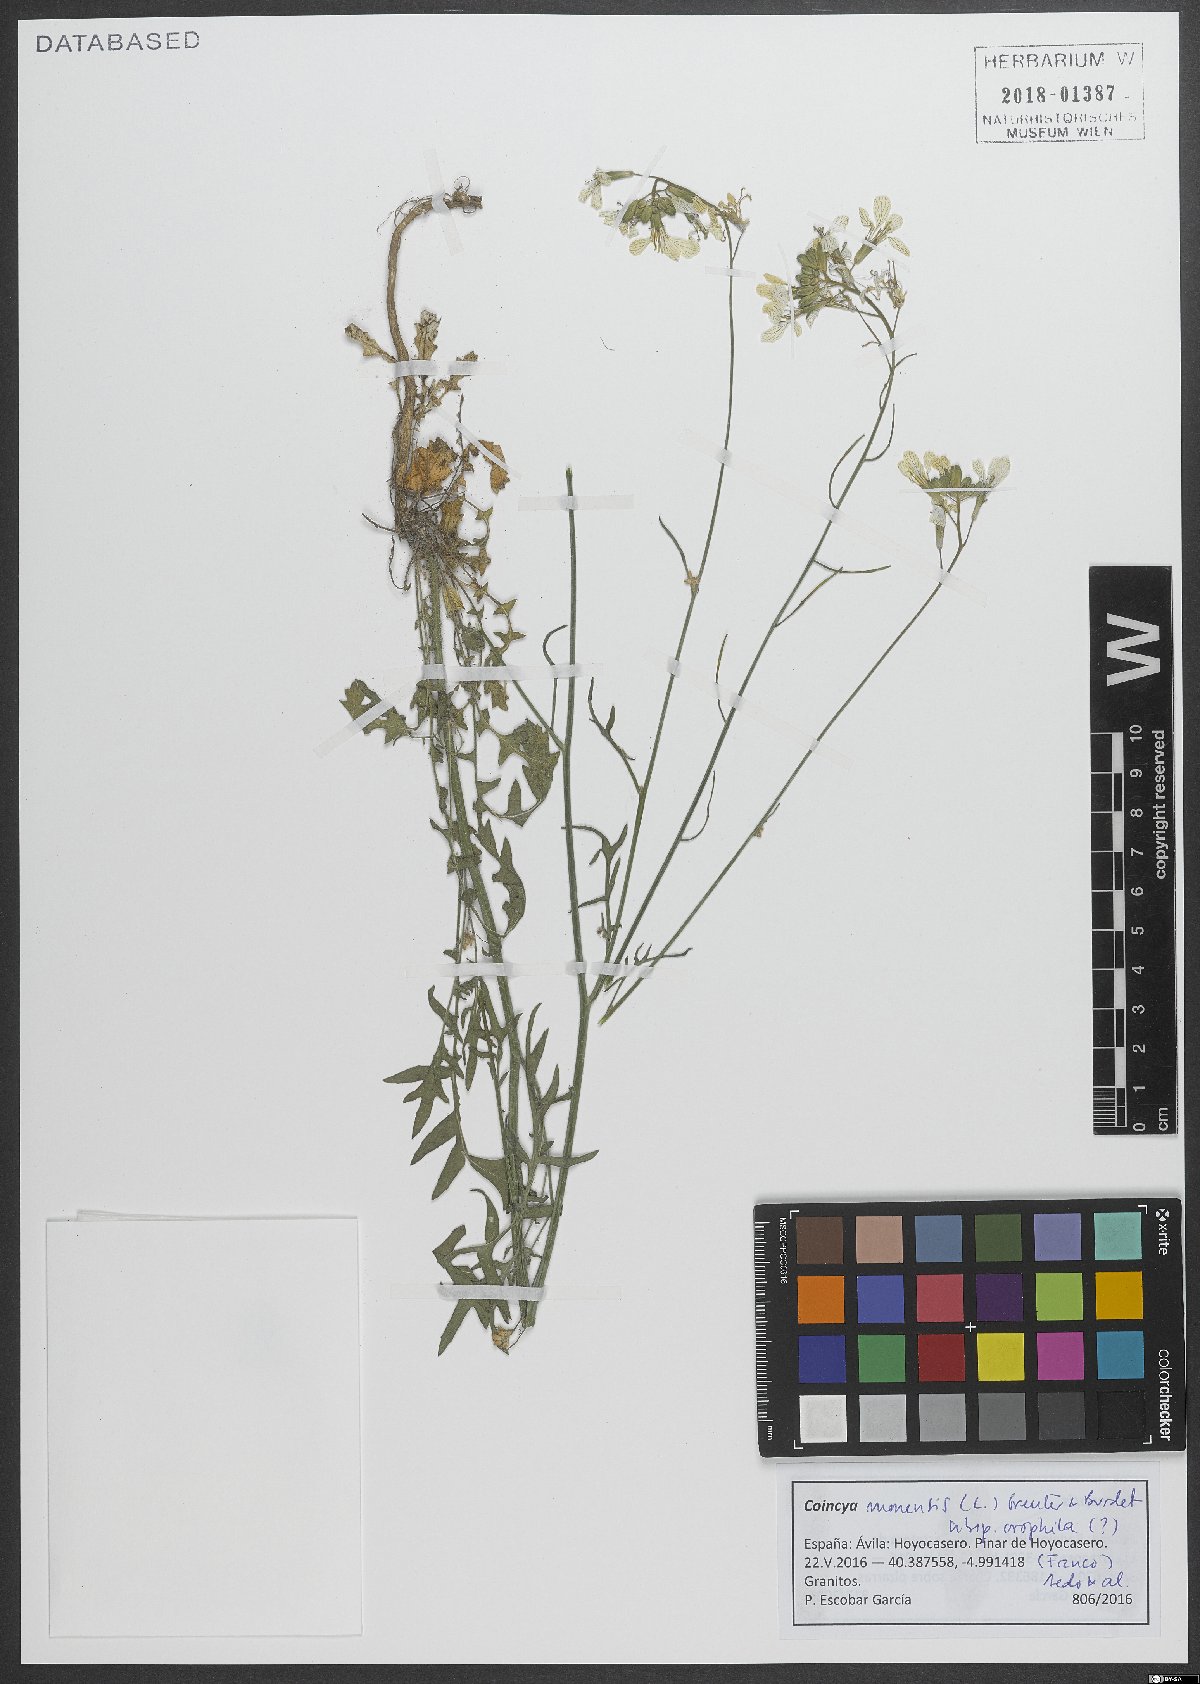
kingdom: Plantae
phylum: Tracheophyta
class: Magnoliopsida
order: Brassicales
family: Brassicaceae
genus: Coincya
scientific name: Coincya monensis
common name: Star-mustard
